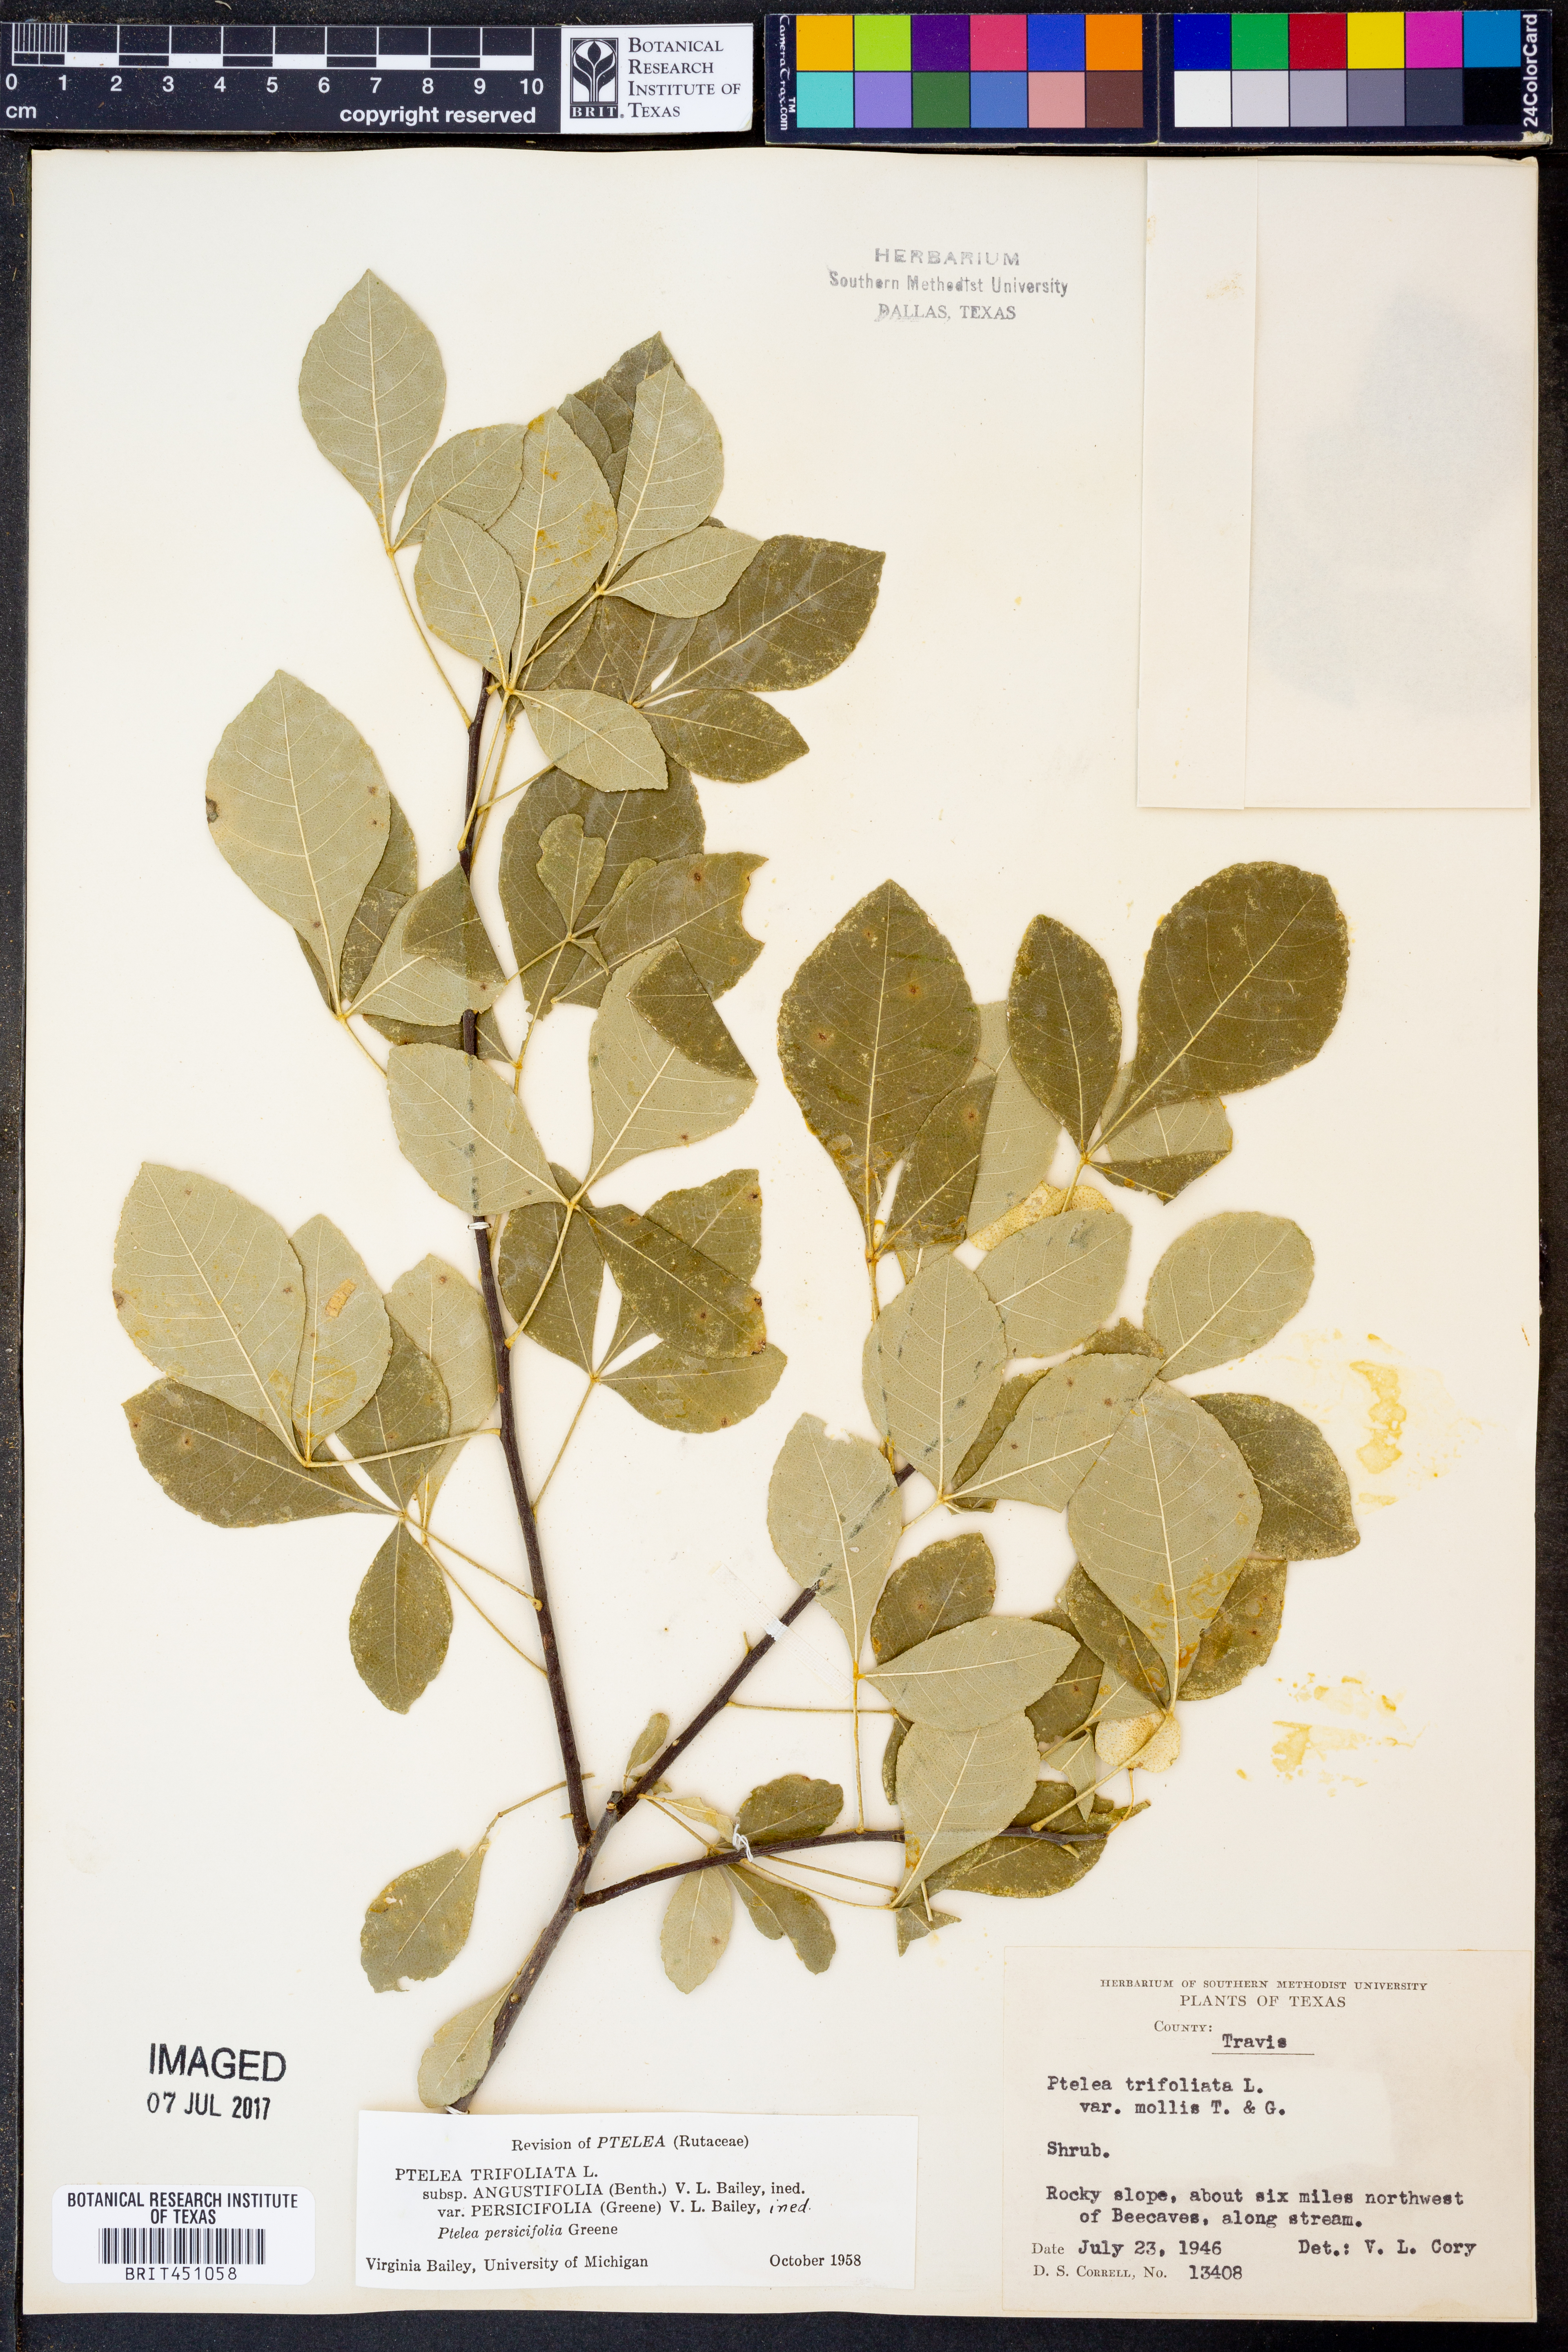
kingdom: Plantae
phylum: Tracheophyta
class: Magnoliopsida
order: Sapindales
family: Rutaceae
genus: Ptelea
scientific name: Ptelea trifoliata
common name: Common hop-tree
